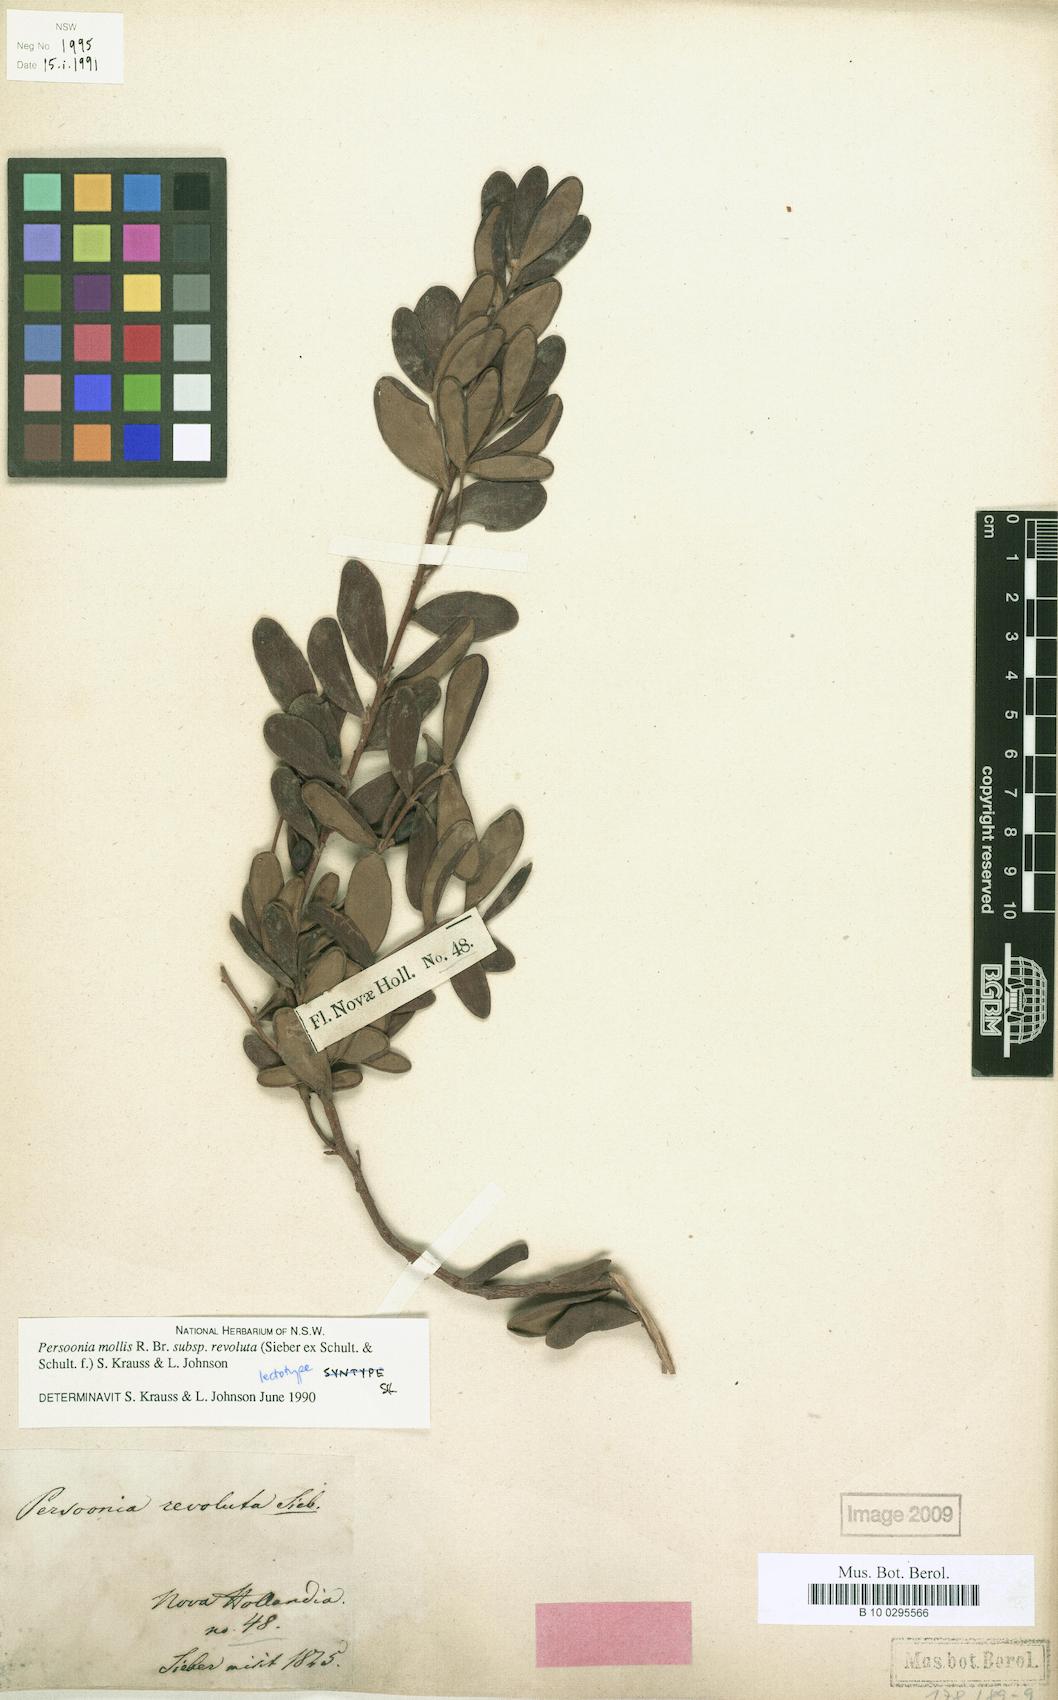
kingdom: Plantae
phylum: Tracheophyta
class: Magnoliopsida
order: Proteales
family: Proteaceae
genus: Persoonia
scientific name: Persoonia mollis
